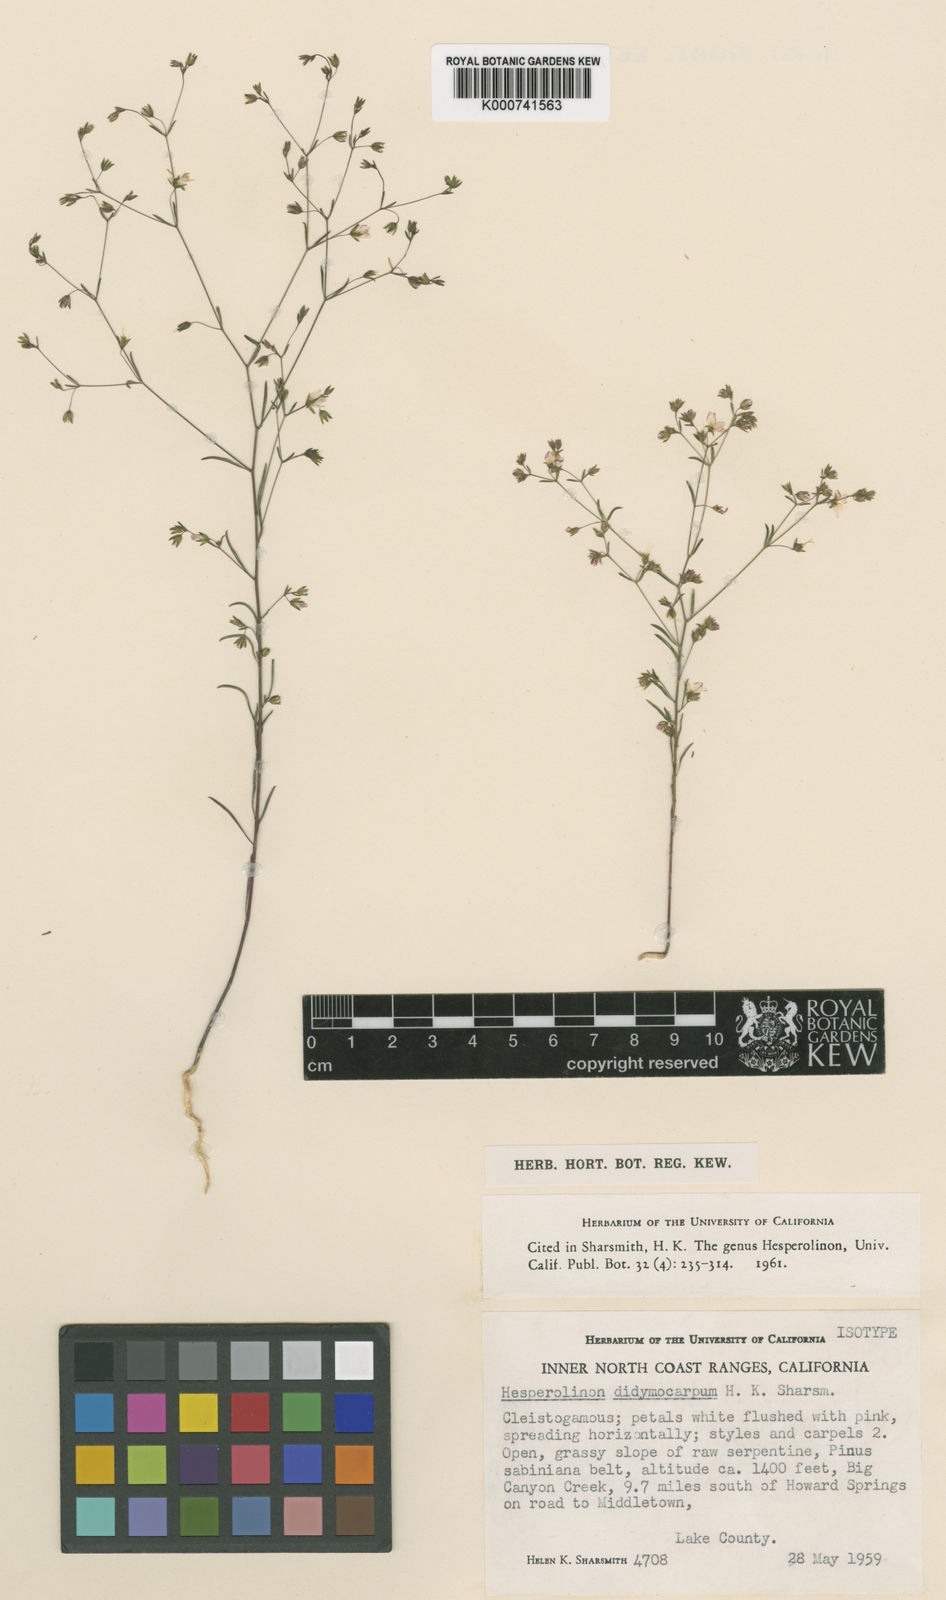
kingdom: Plantae
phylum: Tracheophyta
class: Magnoliopsida
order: Malpighiales
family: Linaceae
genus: Hesperolinon
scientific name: Hesperolinon didymocarpum
